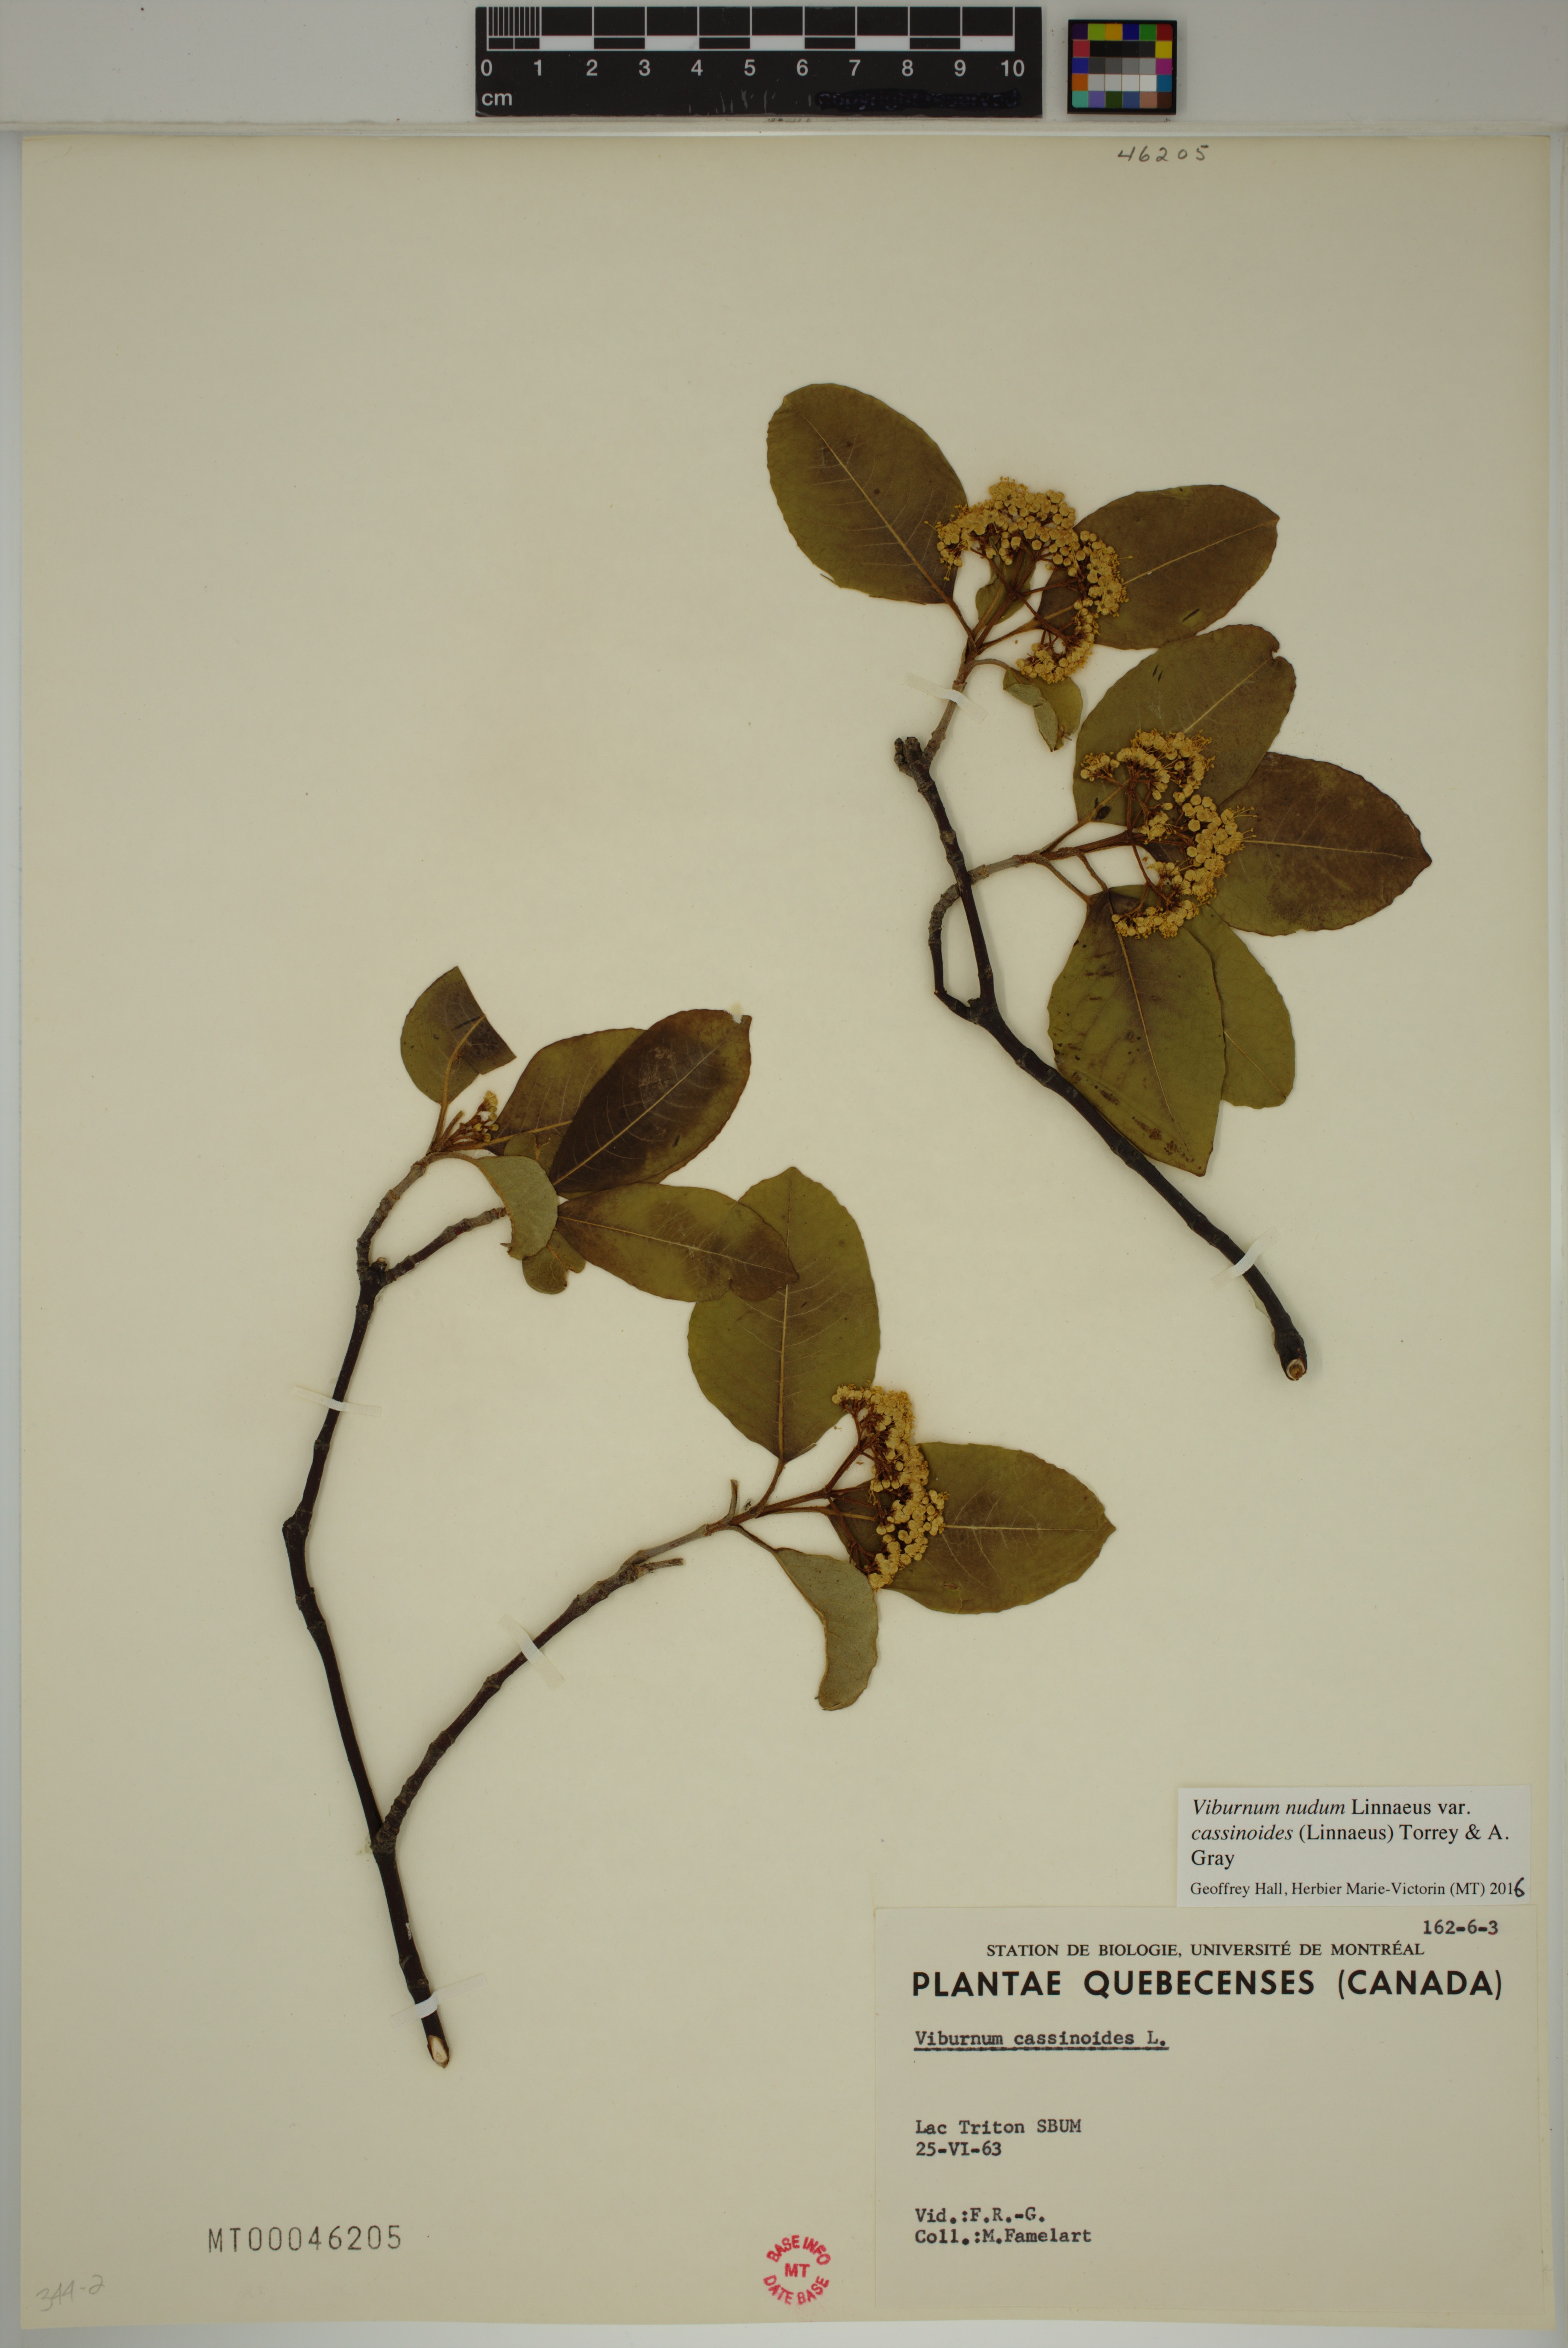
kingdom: Plantae
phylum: Tracheophyta
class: Magnoliopsida
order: Dipsacales
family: Viburnaceae
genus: Viburnum
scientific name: Viburnum cassinoides
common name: Swamp haw
